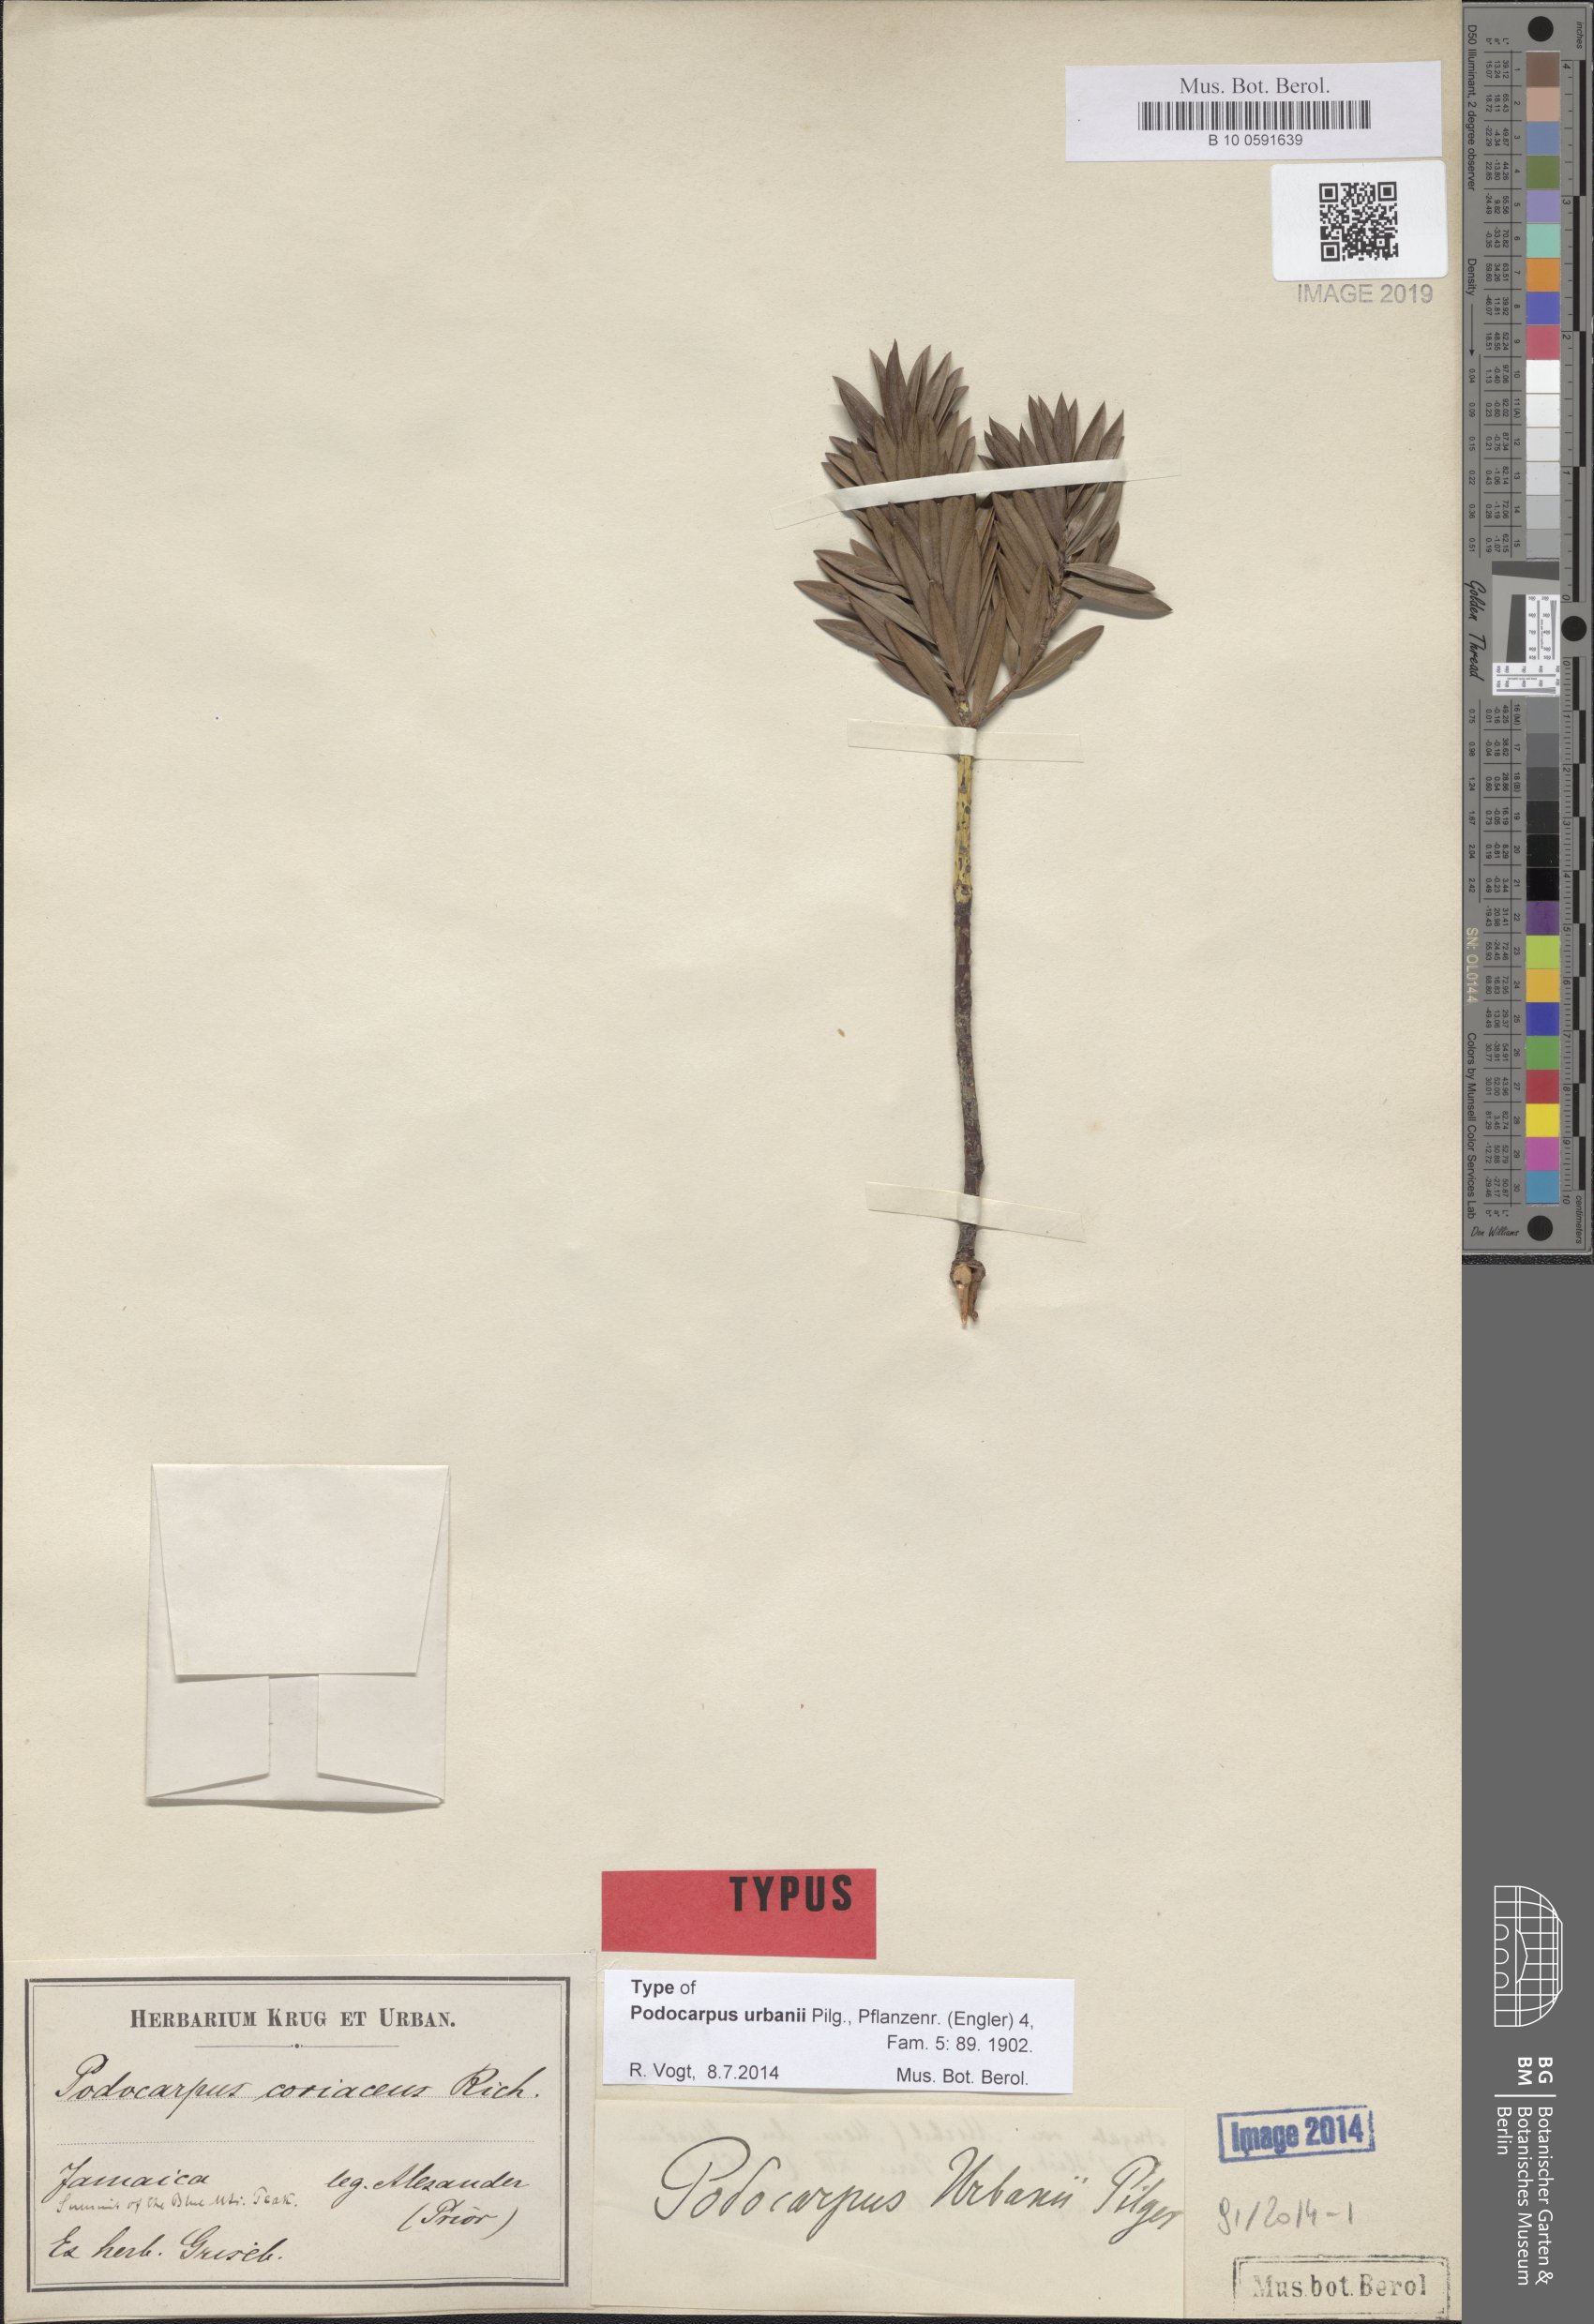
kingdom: Plantae
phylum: Tracheophyta
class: Pinopsida
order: Pinales
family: Podocarpaceae
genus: Podocarpus
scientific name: Podocarpus urbanii
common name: Blue mountain yacca
